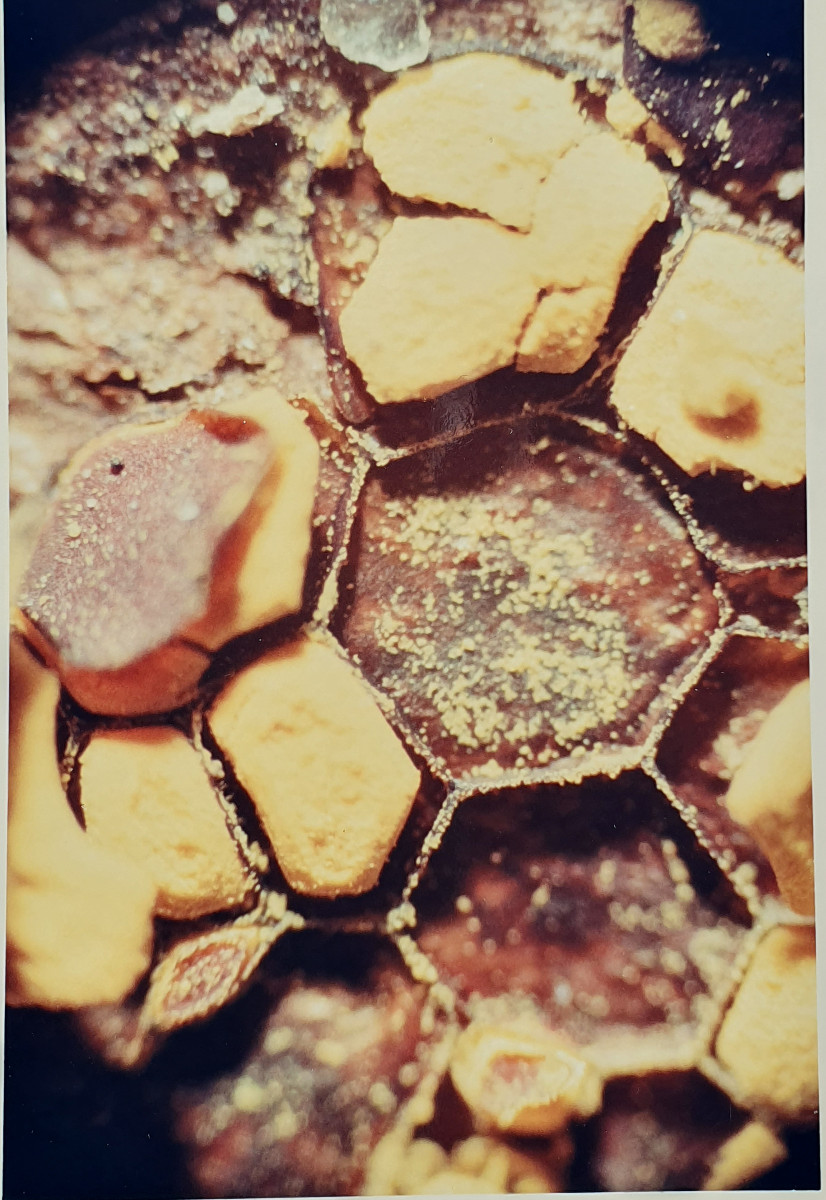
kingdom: Protozoa
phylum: Mycetozoa
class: Myxomycetes
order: Trichiales
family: Trichiaceae
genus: Perichaena
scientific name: Perichaena depressa
